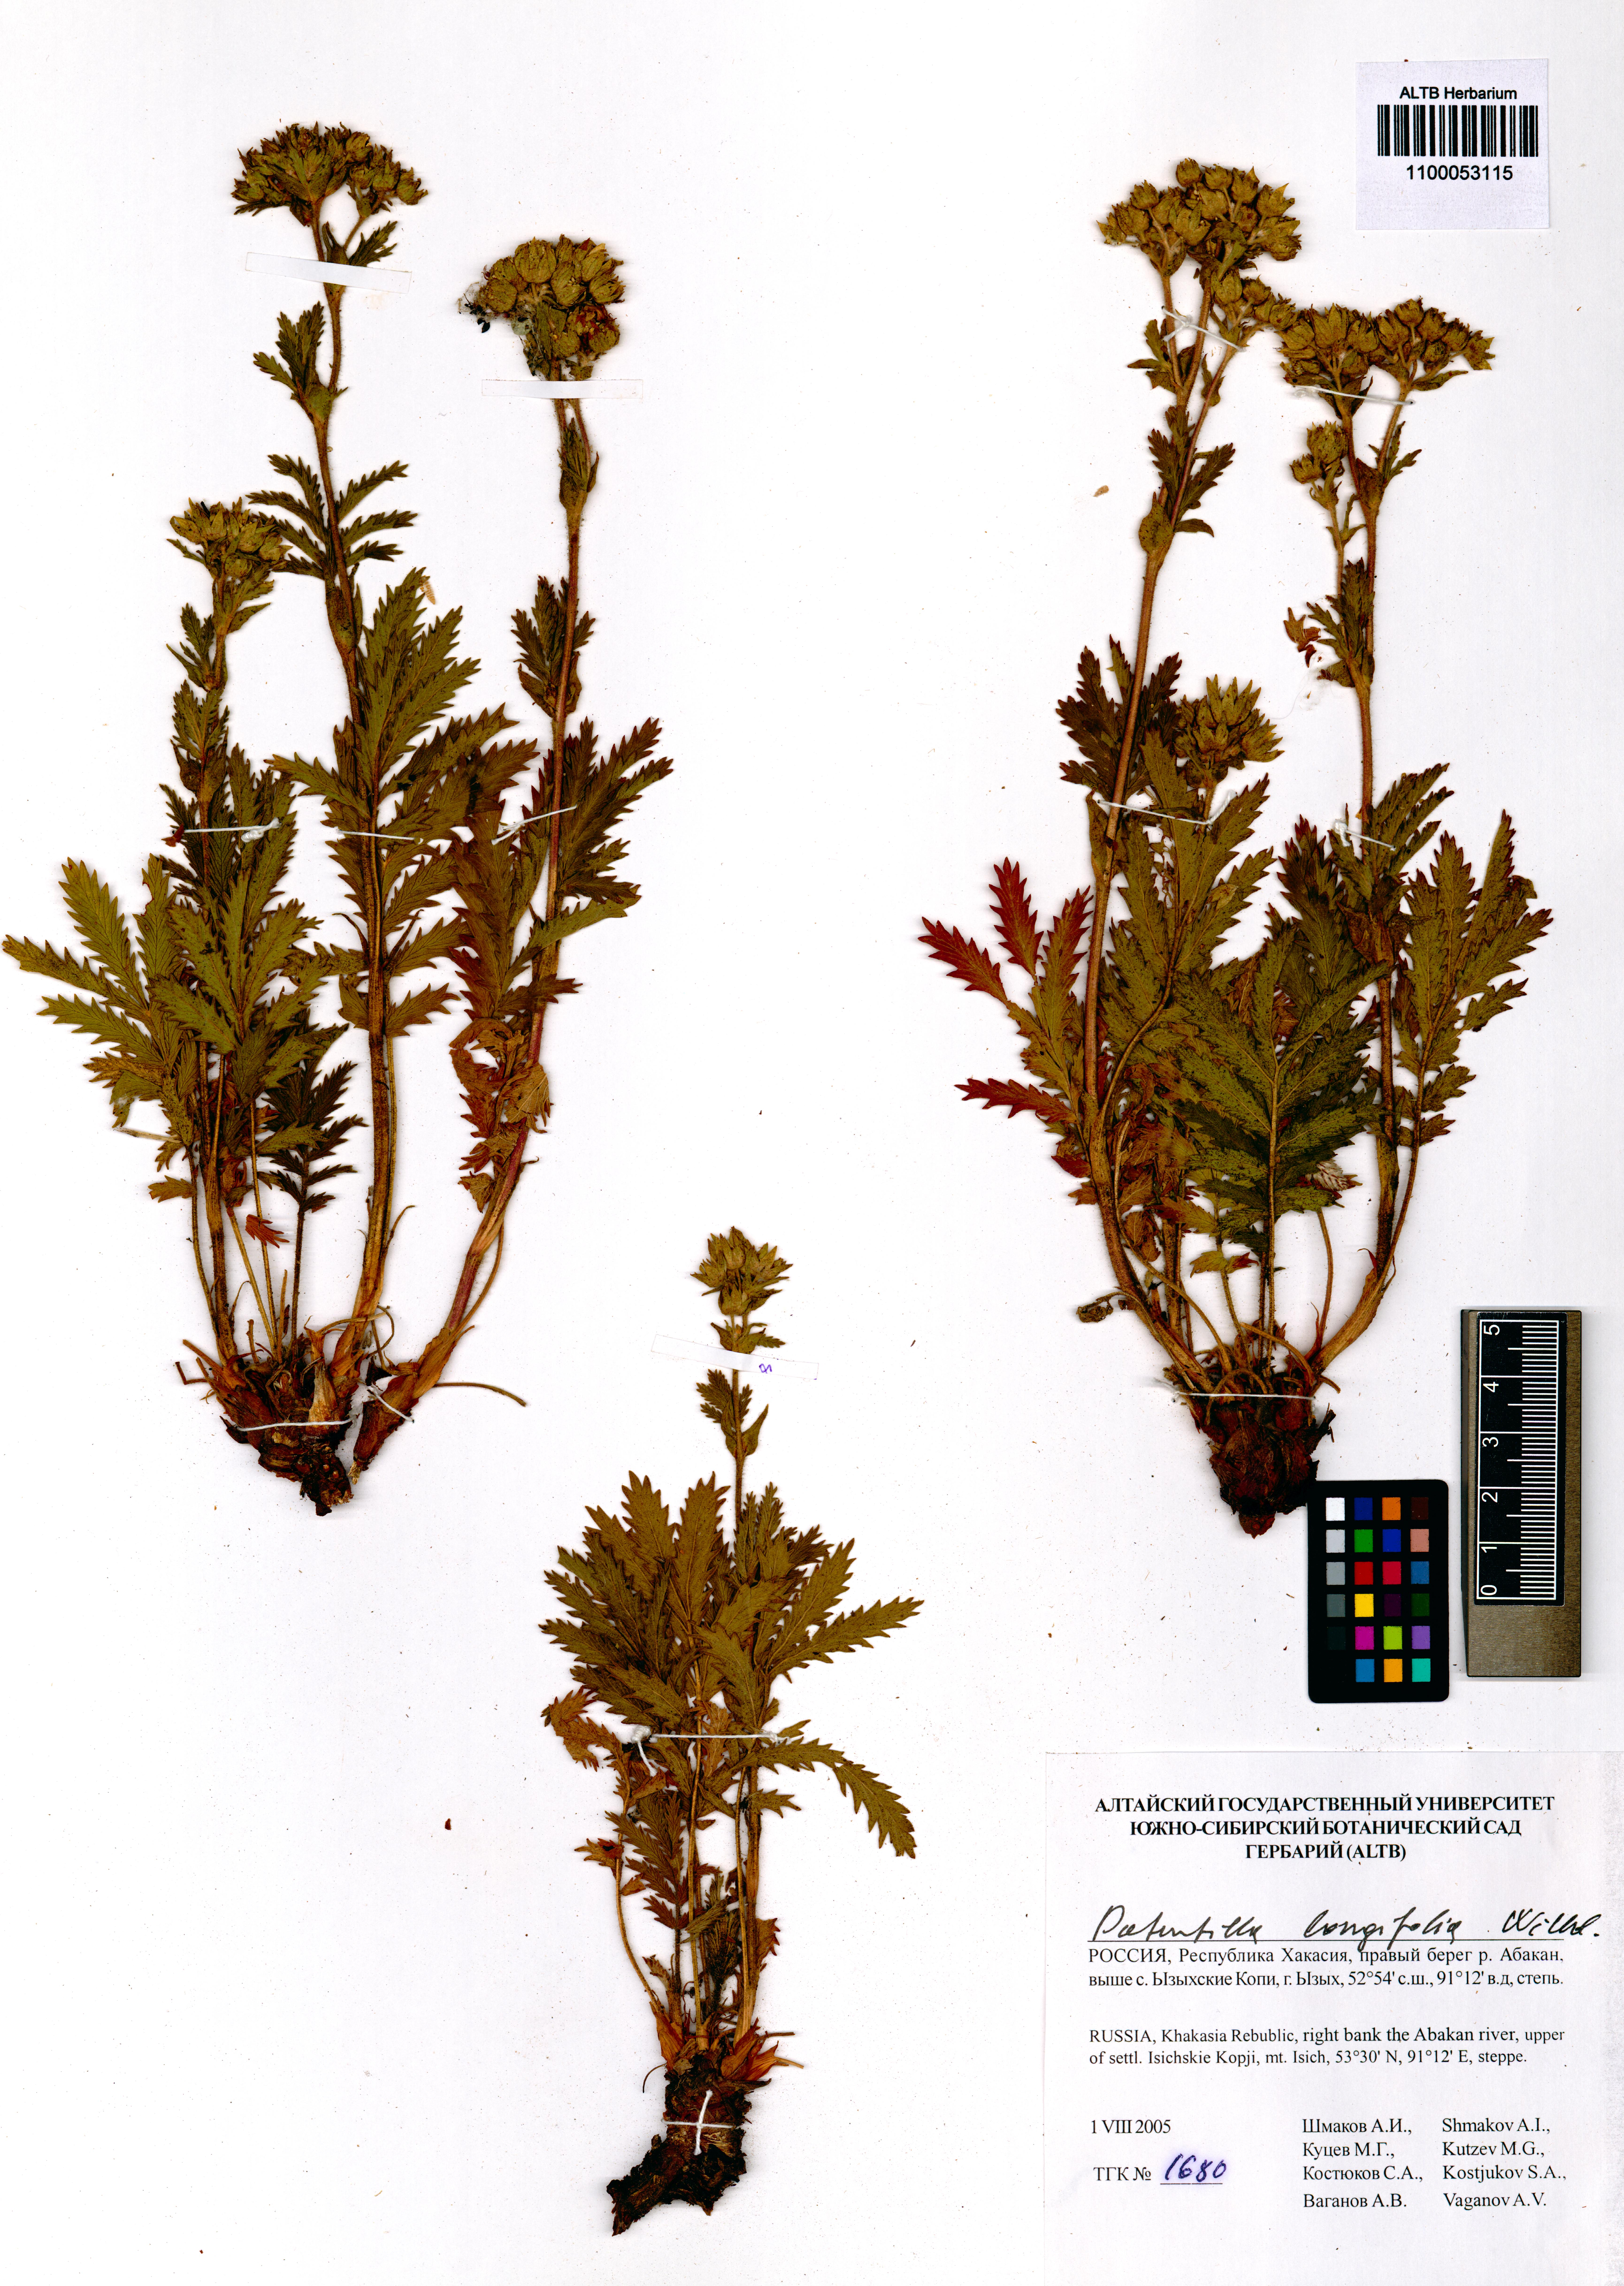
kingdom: Plantae
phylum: Tracheophyta
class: Magnoliopsida
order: Rosales
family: Rosaceae
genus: Potentilla
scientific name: Potentilla longifolia
